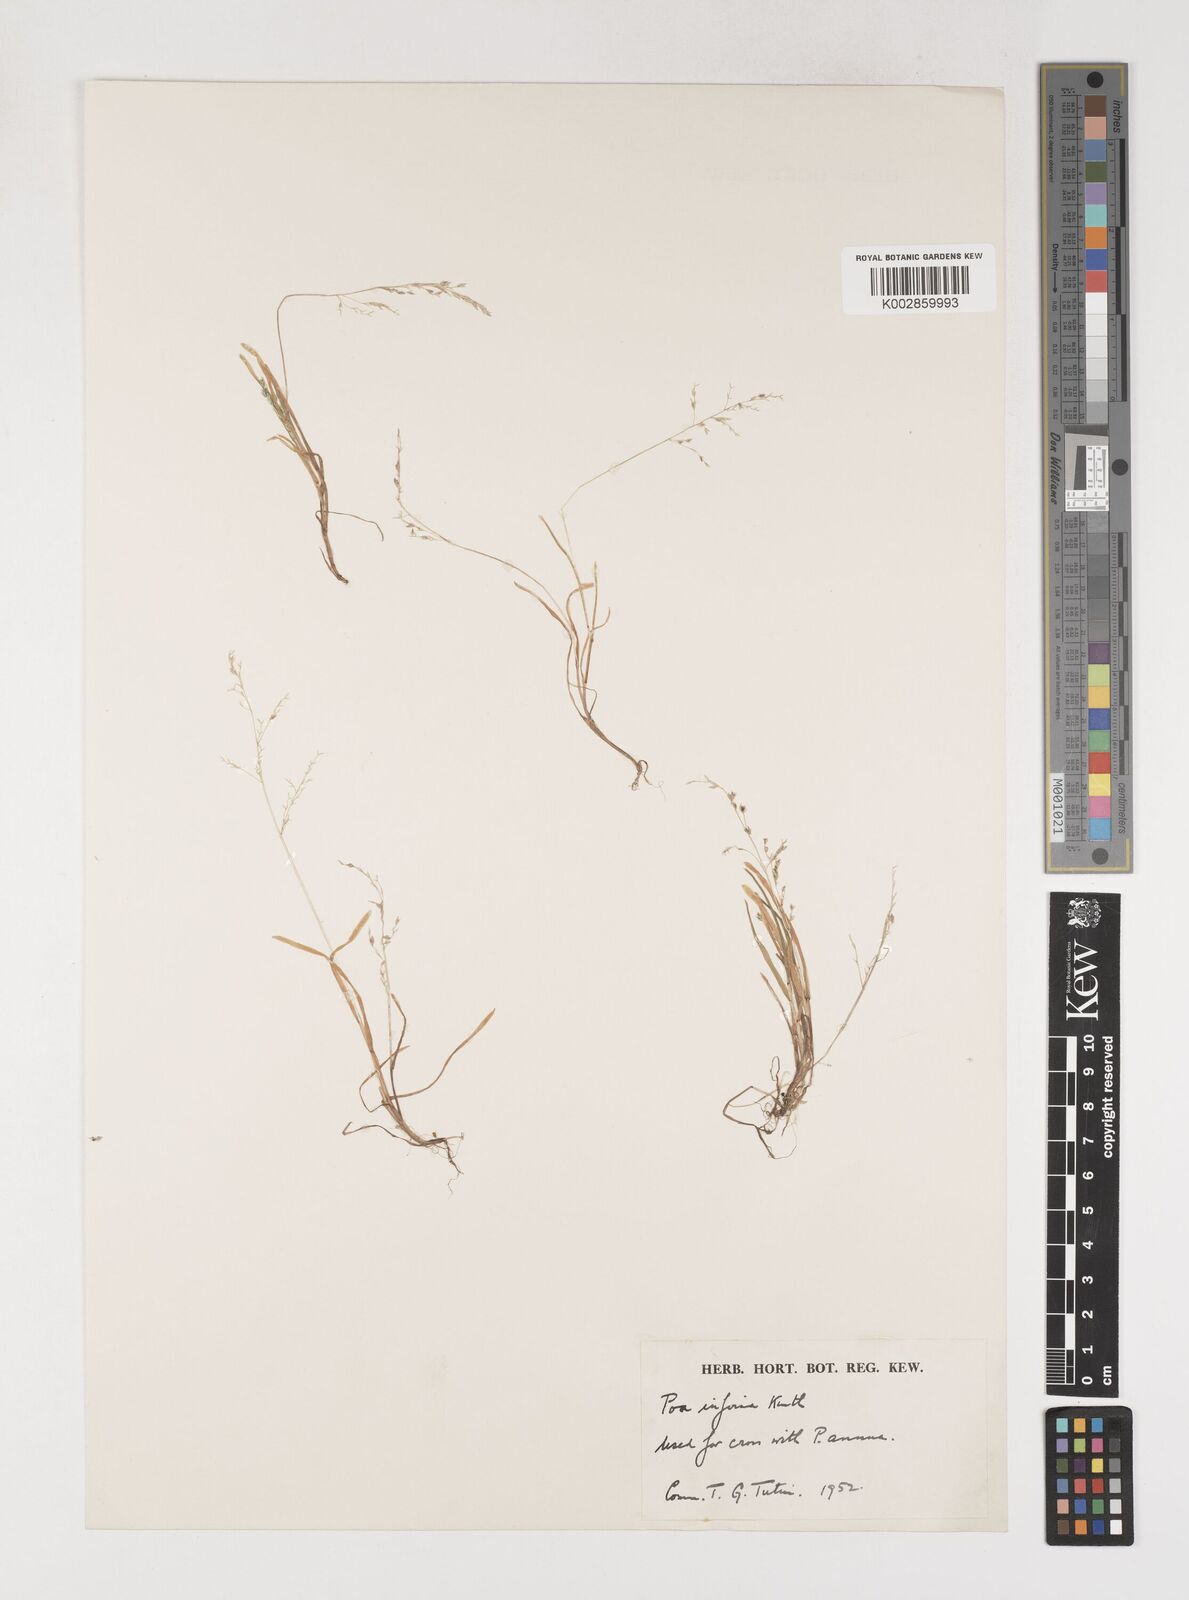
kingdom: Plantae
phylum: Tracheophyta
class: Liliopsida
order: Poales
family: Poaceae
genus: Poa
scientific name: Poa infirma
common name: Weak bluegrass
